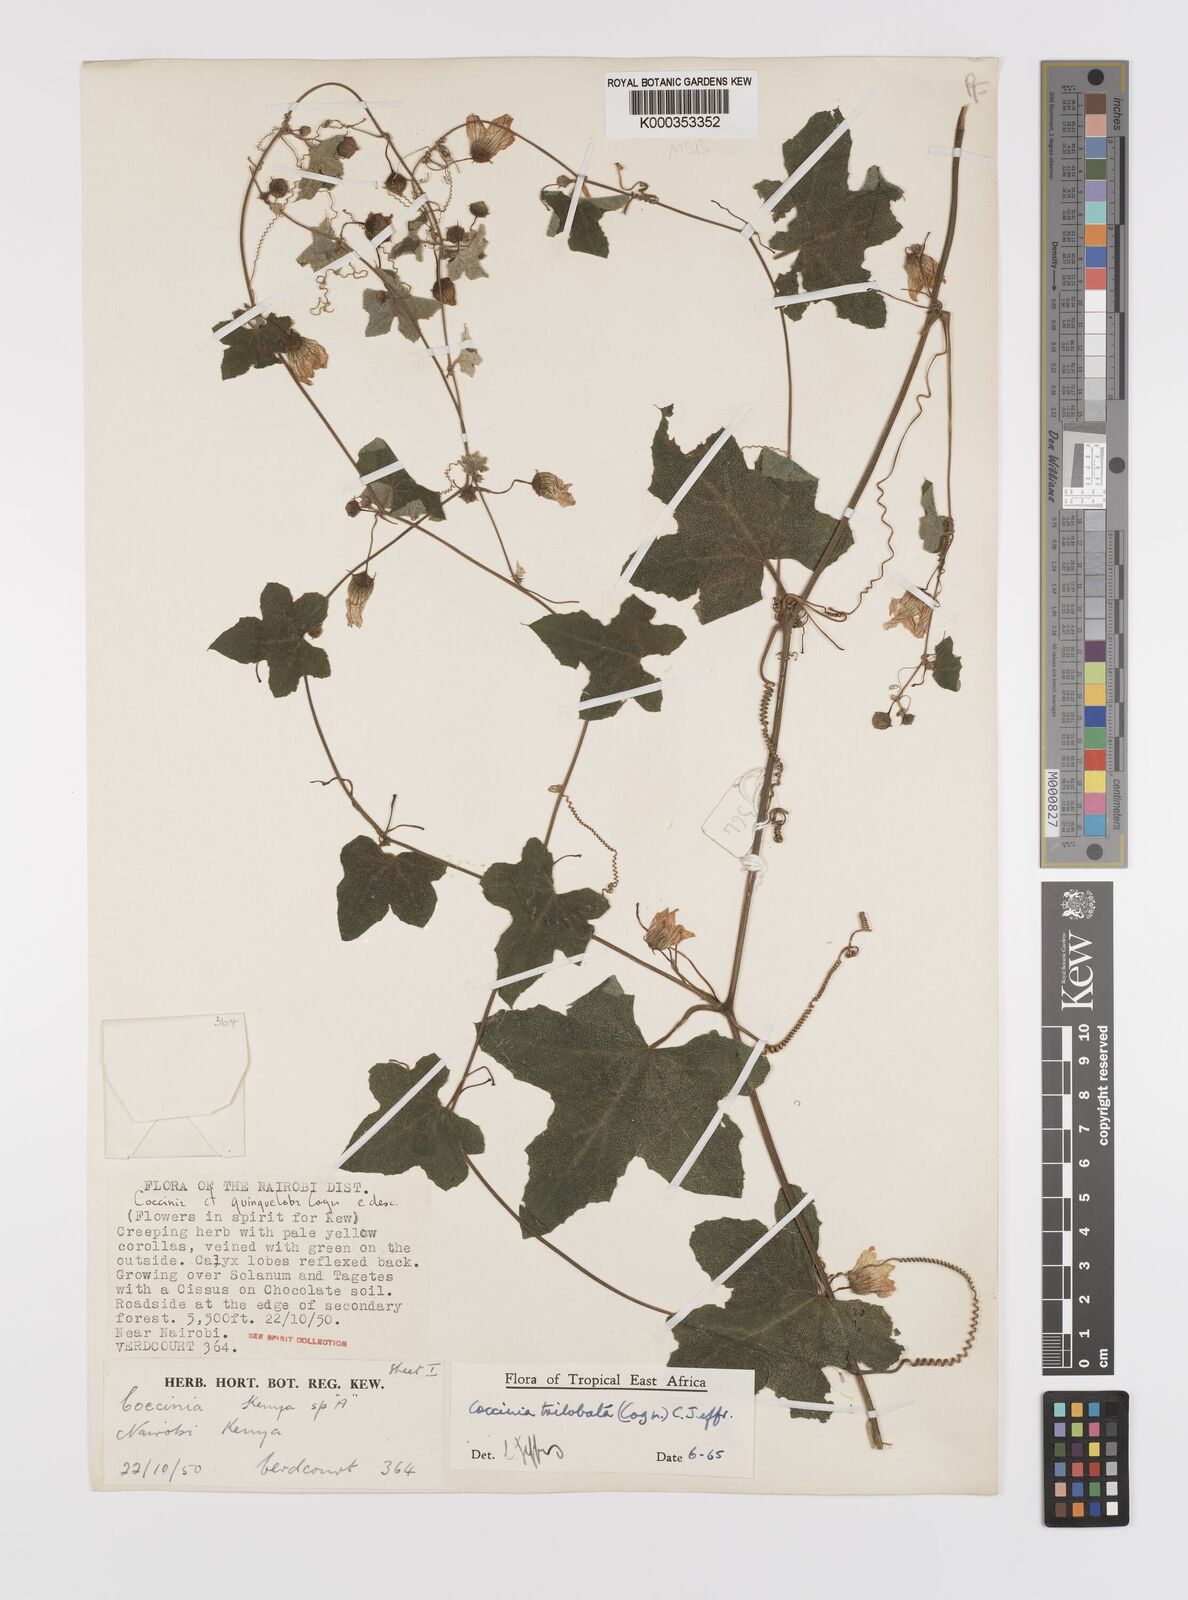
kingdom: Plantae
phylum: Tracheophyta
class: Magnoliopsida
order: Cucurbitales
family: Cucurbitaceae
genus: Coccinia
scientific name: Coccinia trilobata
